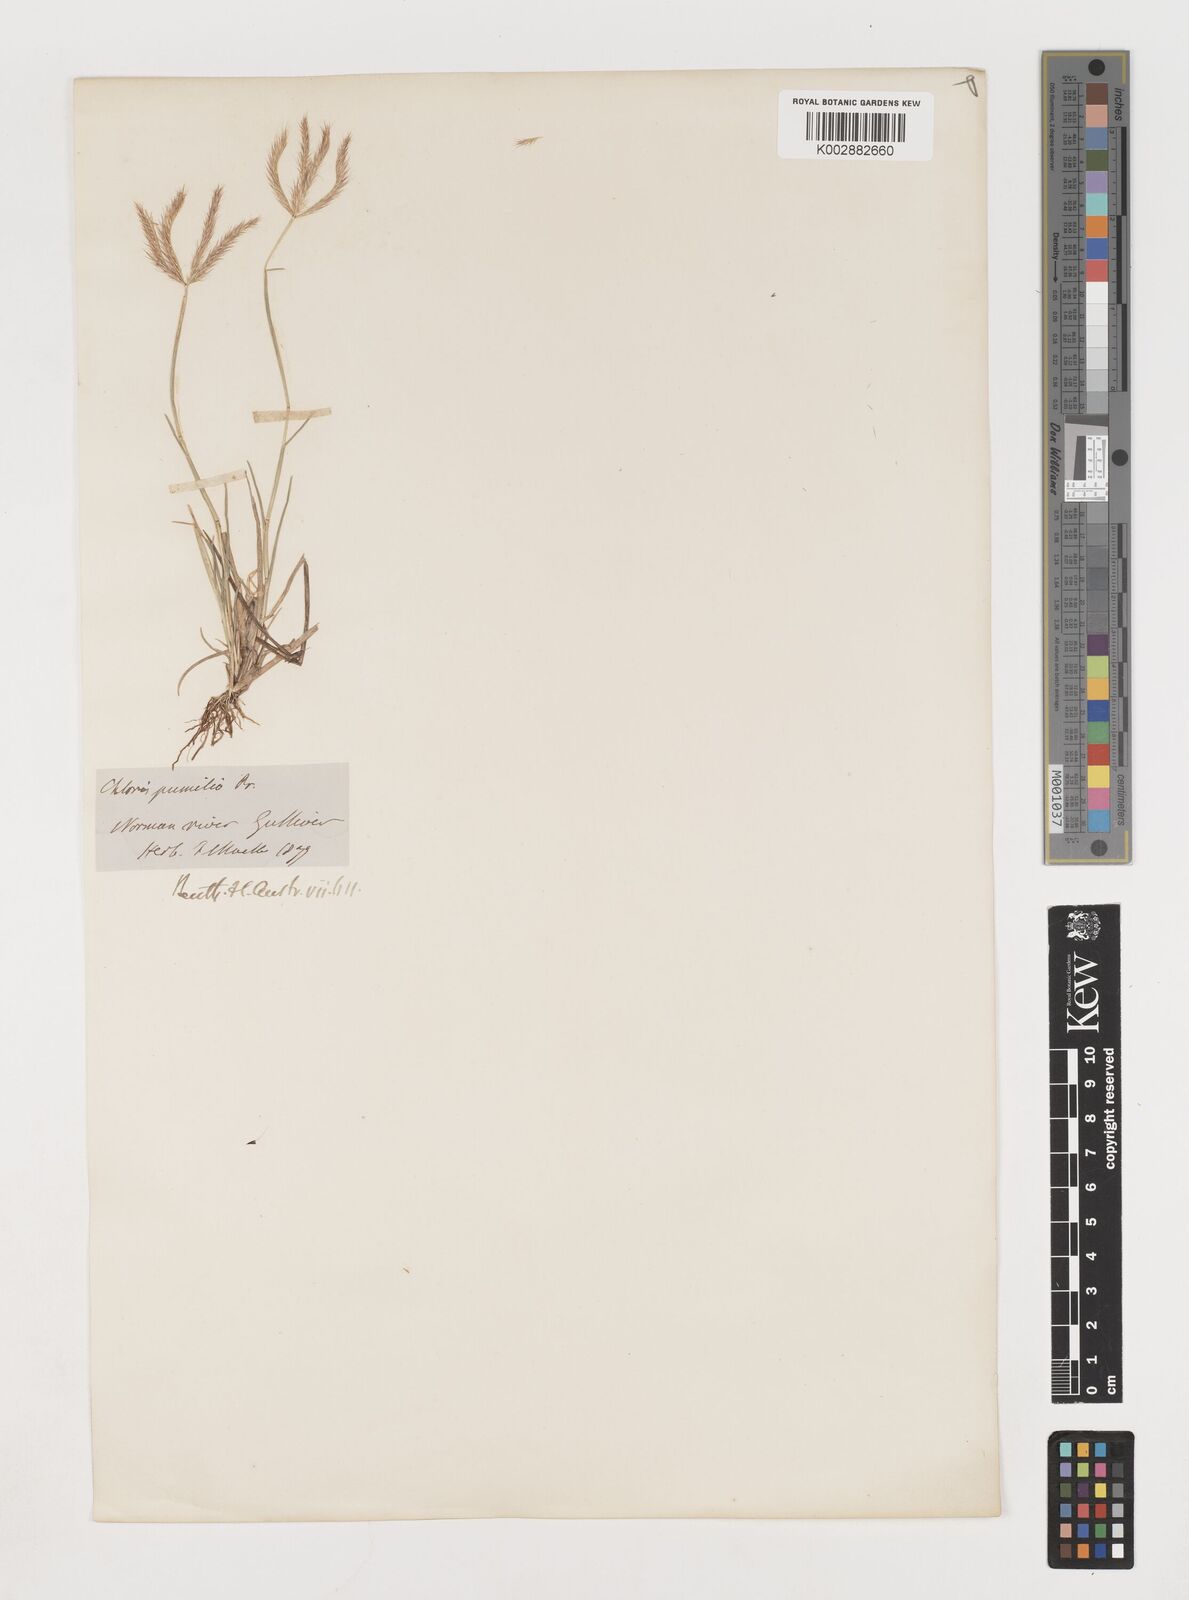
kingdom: Plantae
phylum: Tracheophyta
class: Liliopsida
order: Poales
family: Poaceae
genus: Chloris
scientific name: Chloris lobata
